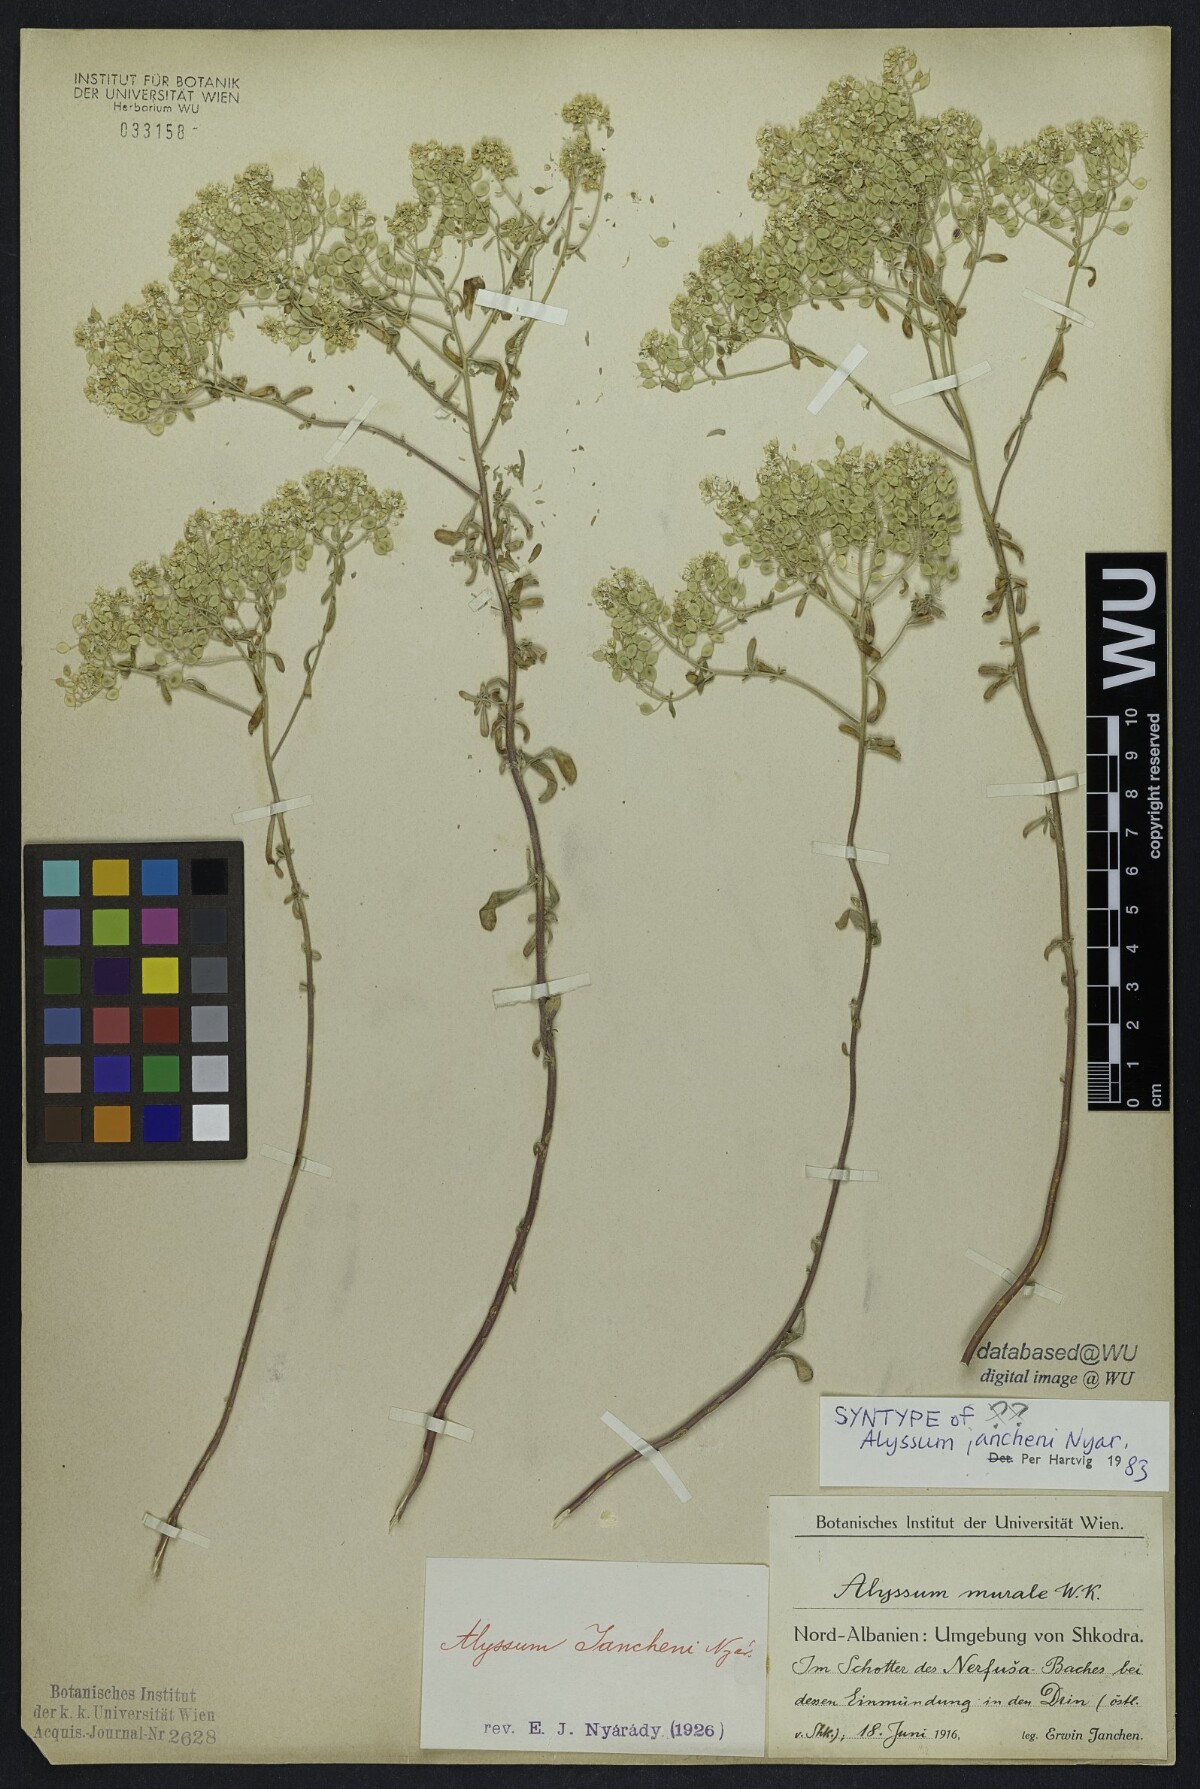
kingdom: Plantae
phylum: Tracheophyta
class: Magnoliopsida
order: Brassicales
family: Brassicaceae
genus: Odontarrhena
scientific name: Odontarrhena chalcidica
